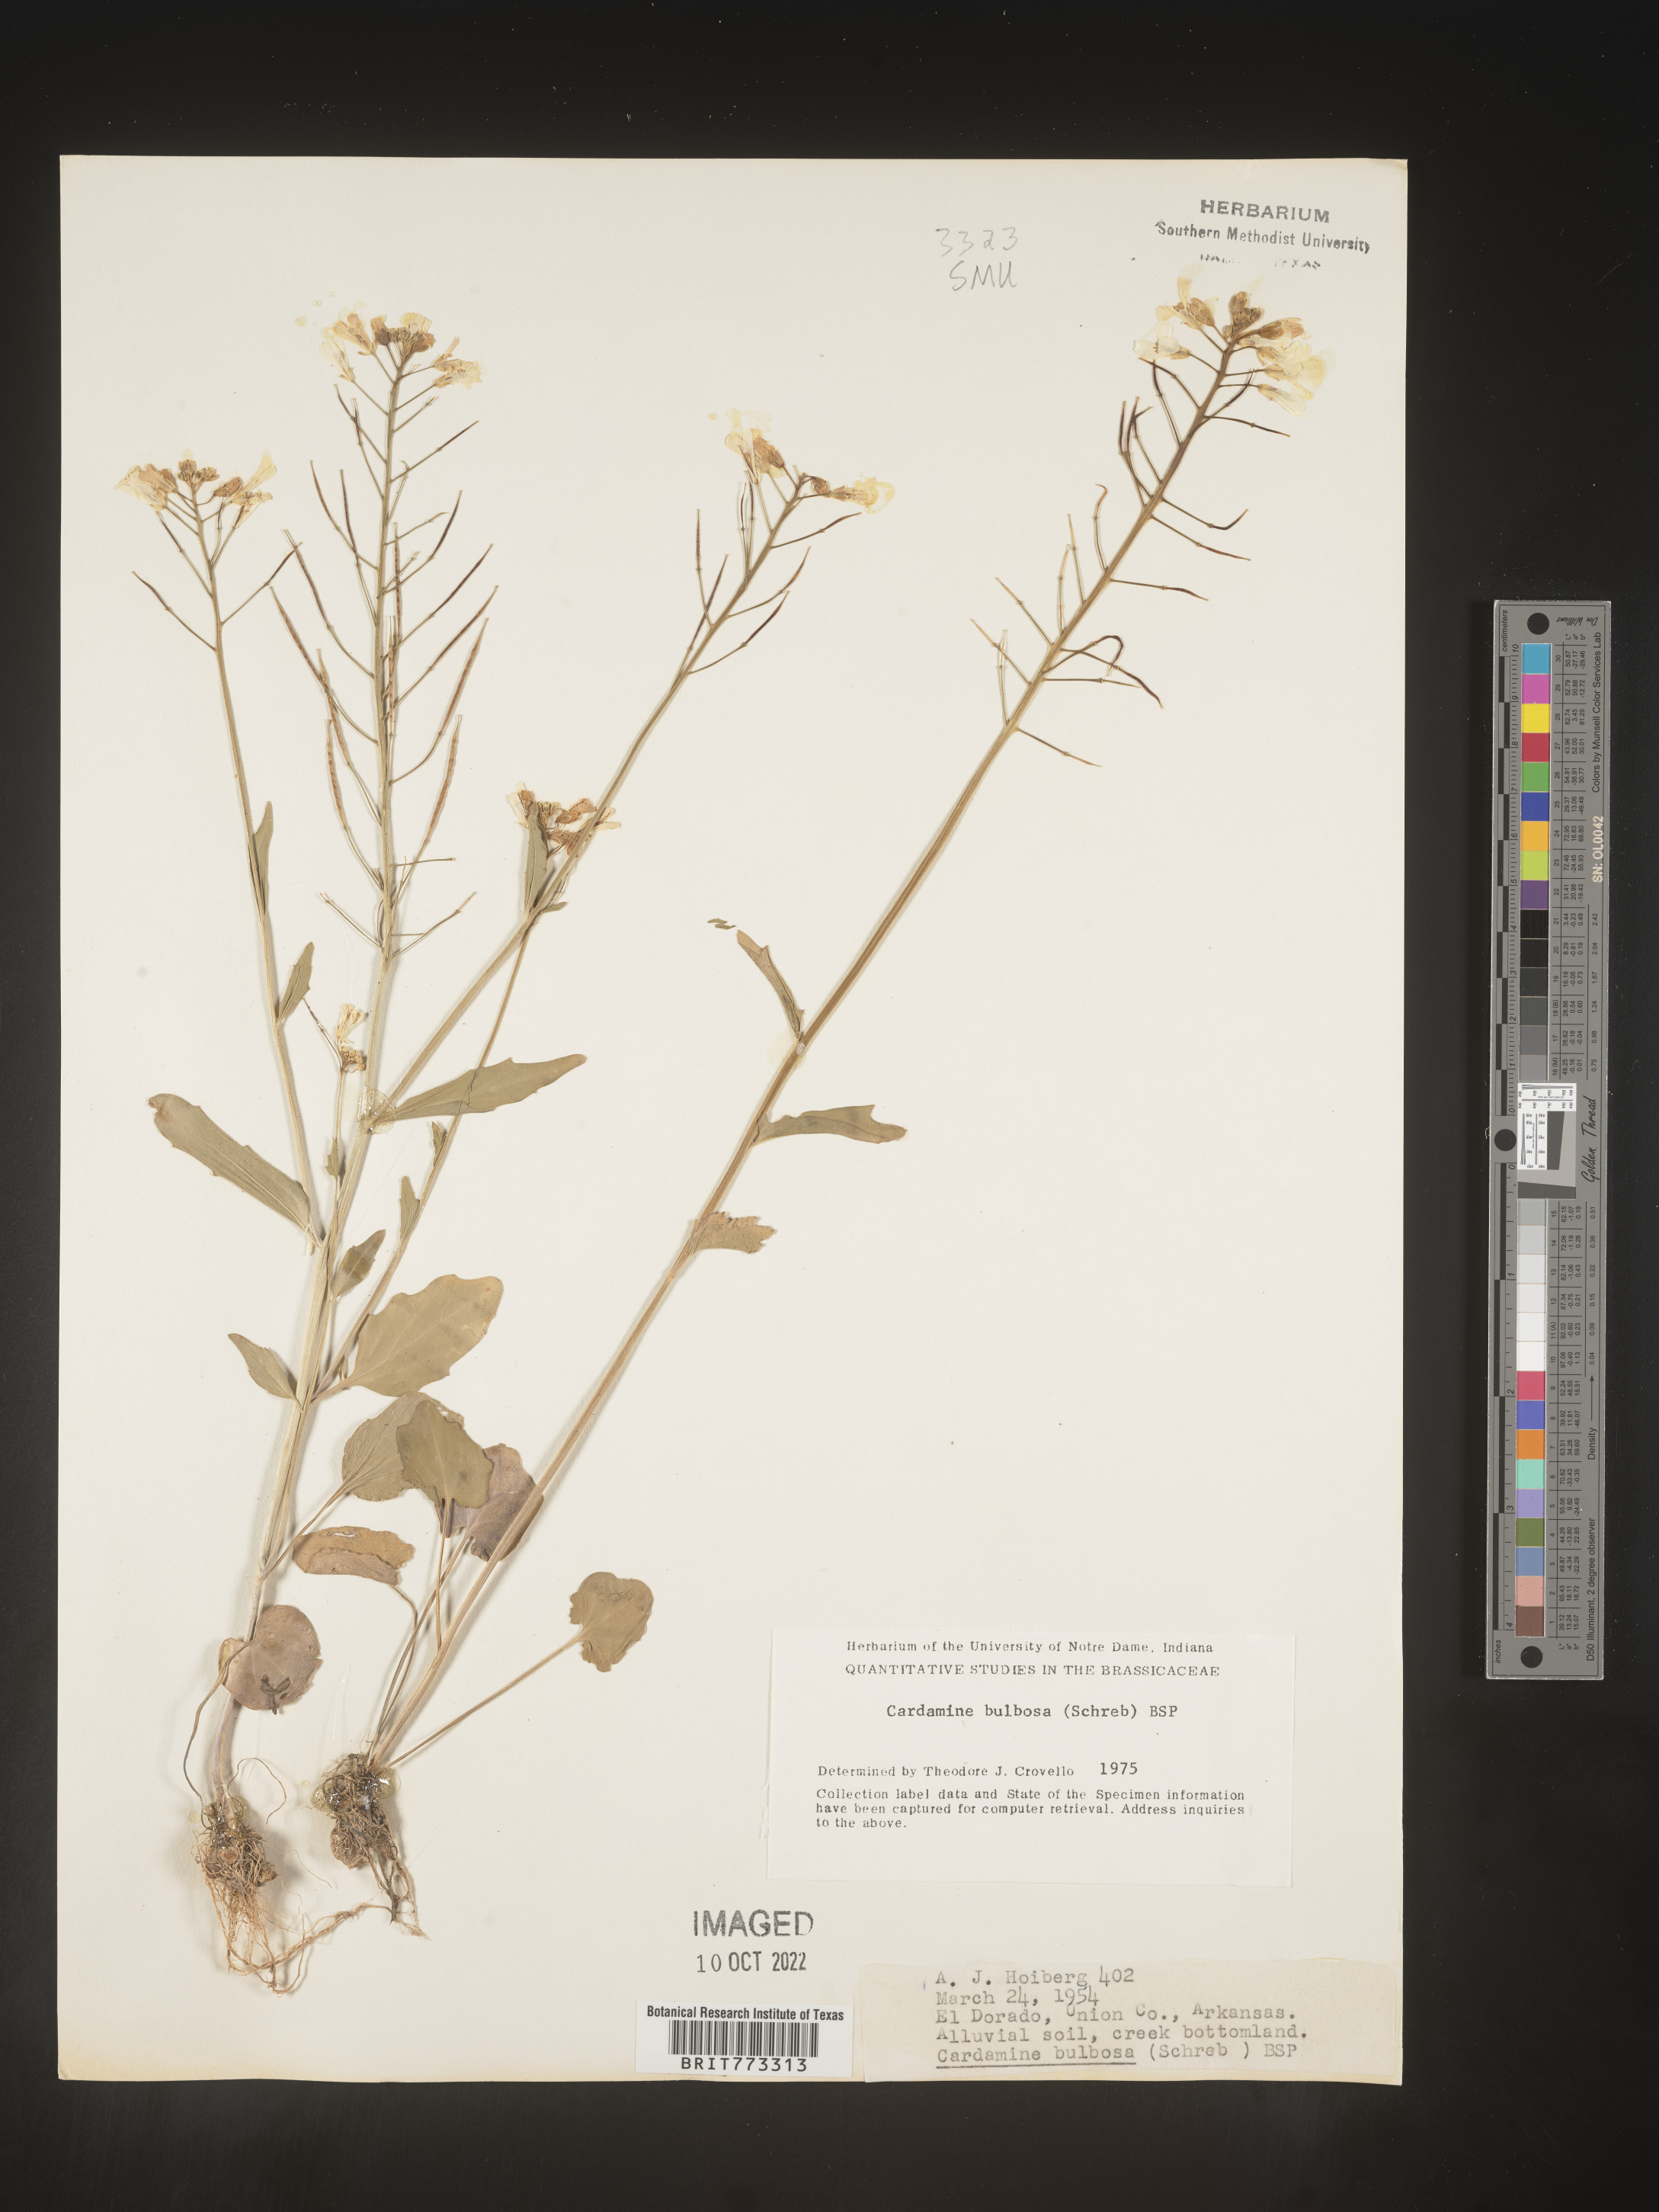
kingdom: Plantae
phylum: Tracheophyta
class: Magnoliopsida
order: Brassicales
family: Brassicaceae
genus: Cardamine
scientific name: Cardamine bulbosa
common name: Spring cress
